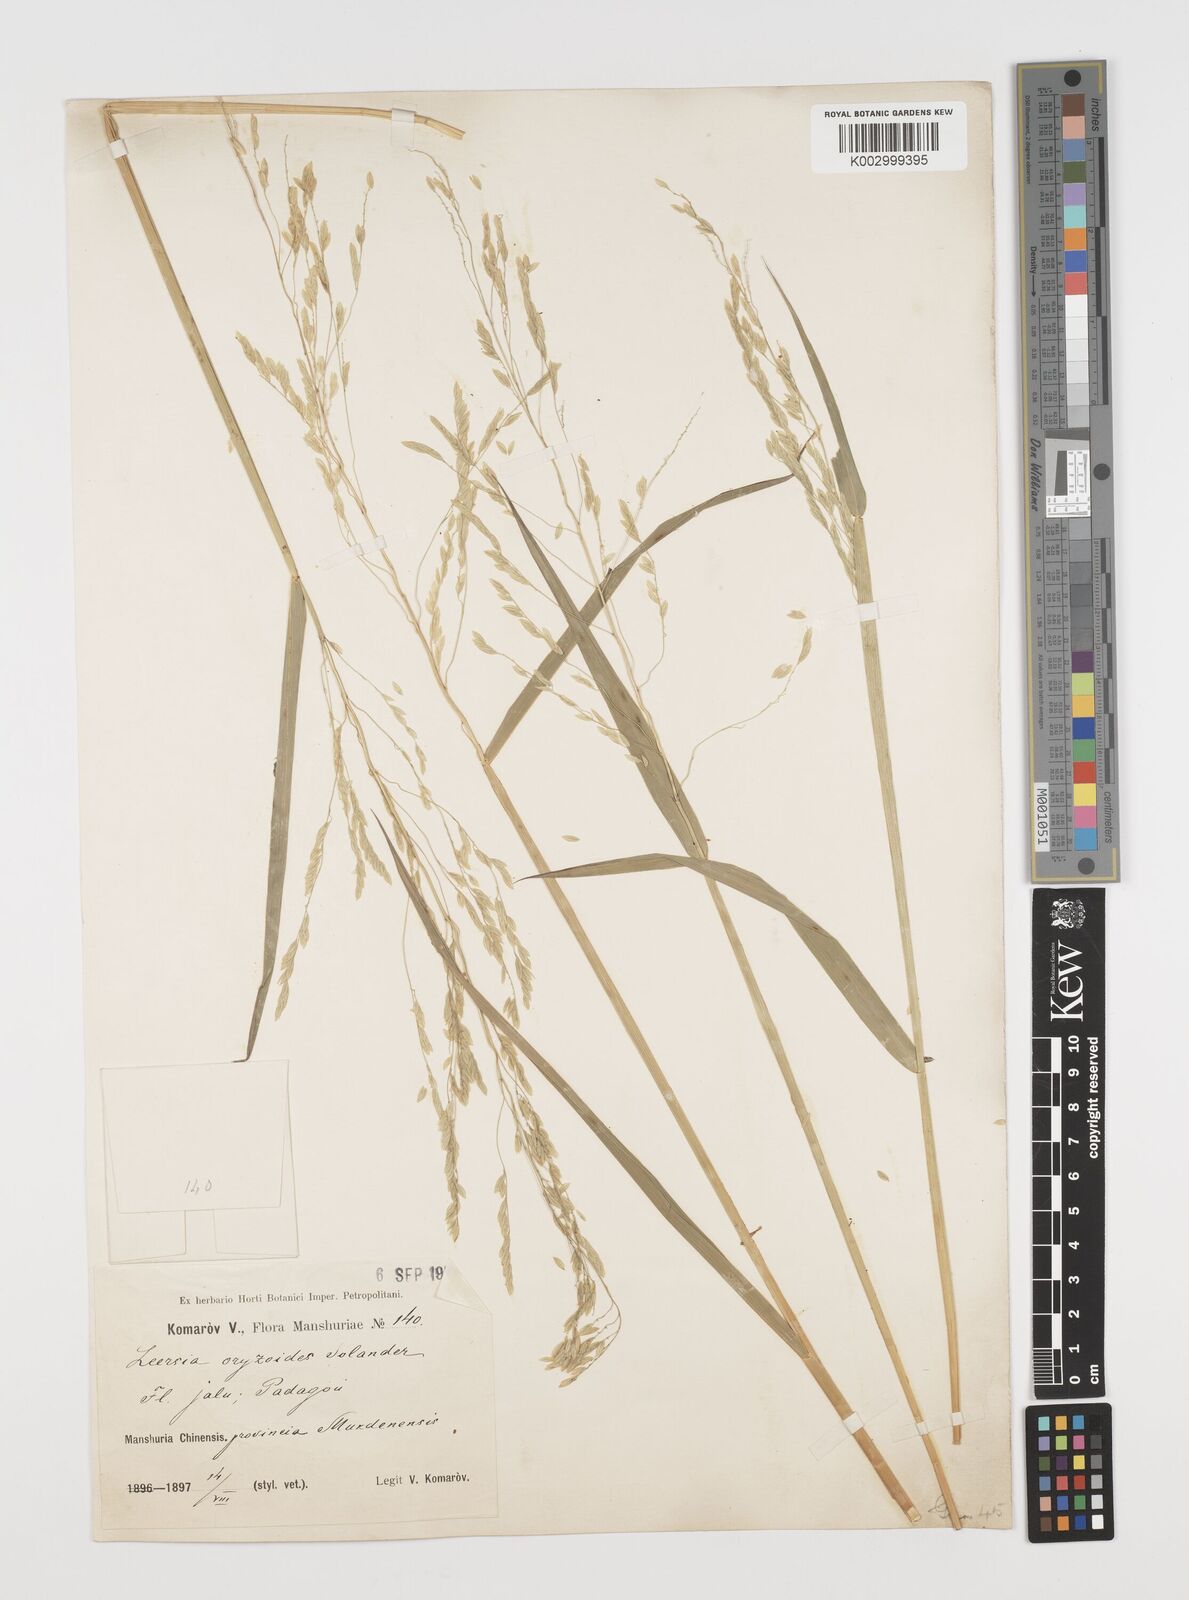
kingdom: Plantae
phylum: Tracheophyta
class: Liliopsida
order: Poales
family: Poaceae
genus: Leersia
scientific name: Leersia oryzoides
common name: Cut-grass
